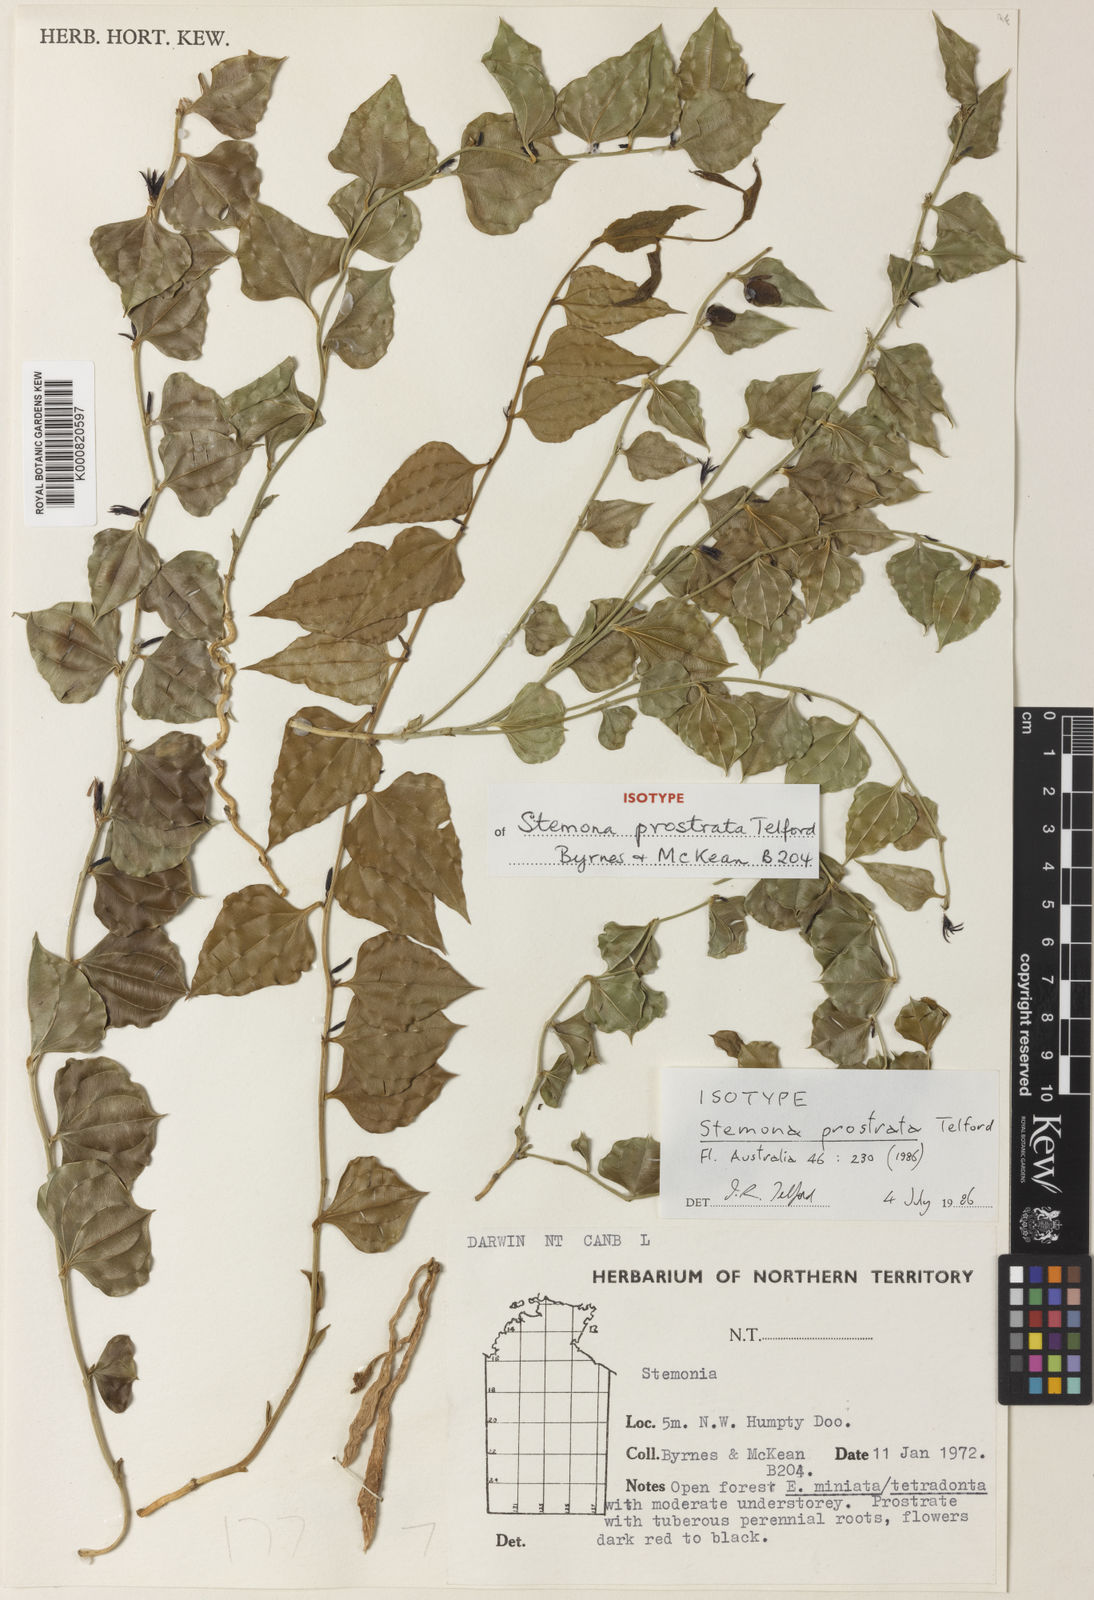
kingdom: Plantae
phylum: Tracheophyta
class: Liliopsida
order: Pandanales
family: Stemonaceae
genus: Stemona
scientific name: Stemona prostrata
